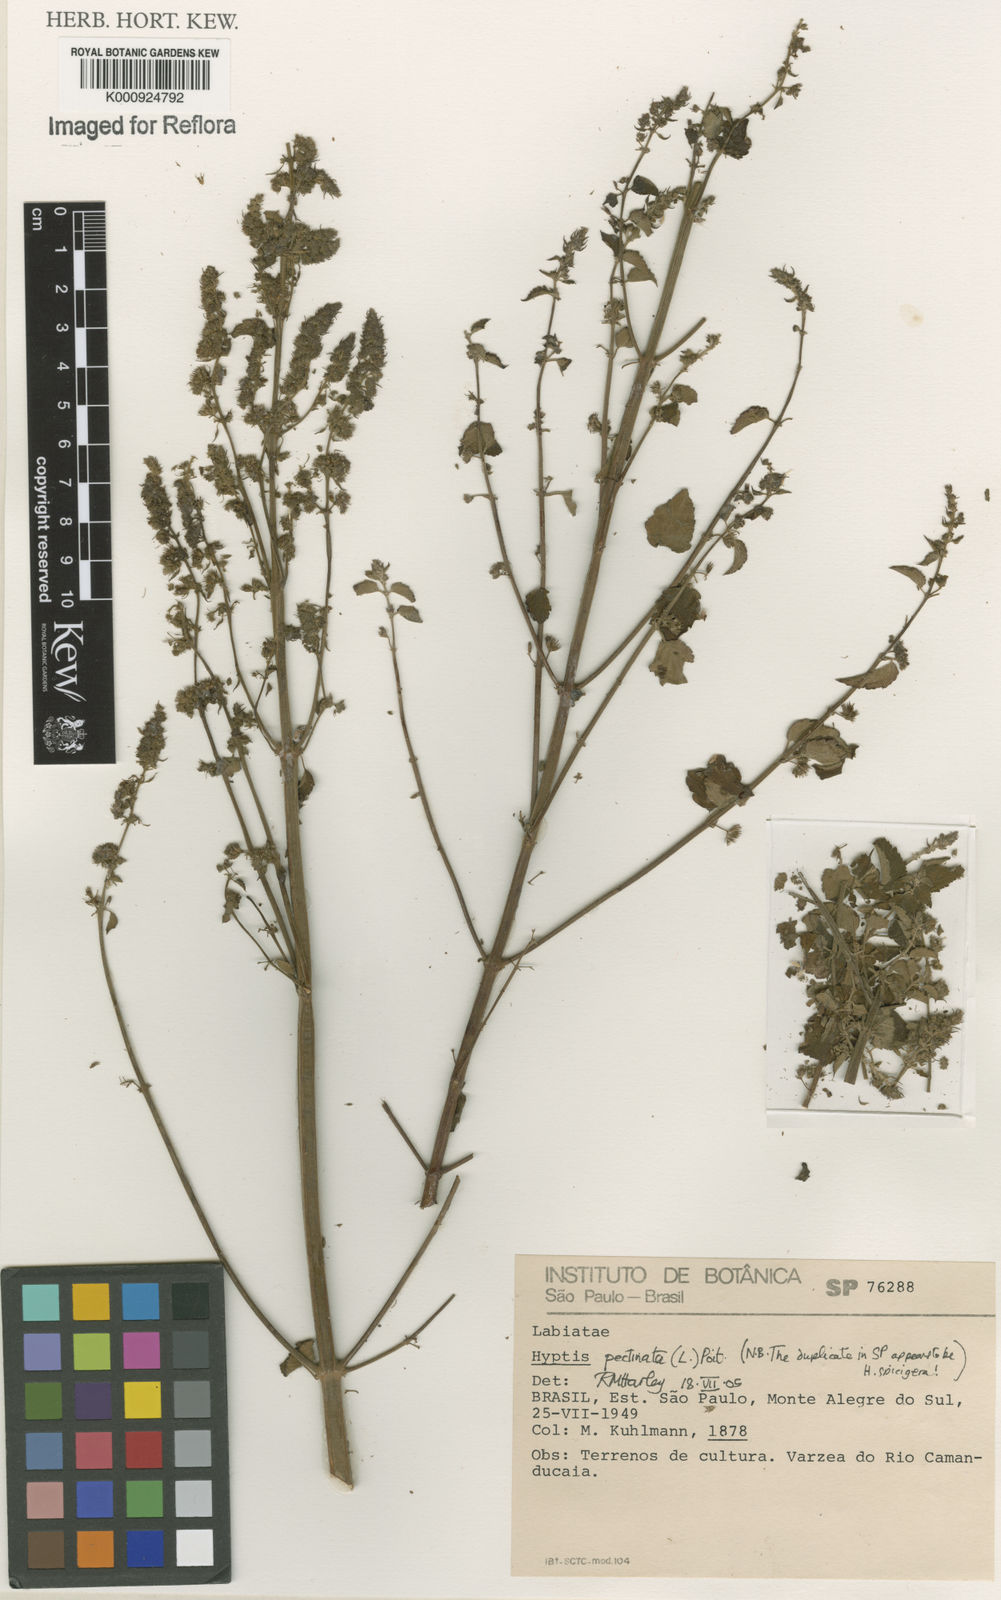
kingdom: Plantae
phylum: Tracheophyta
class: Magnoliopsida
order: Lamiales
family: Lamiaceae
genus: Mesosphaerum
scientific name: Mesosphaerum pectinatum
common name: Comb hyptis
